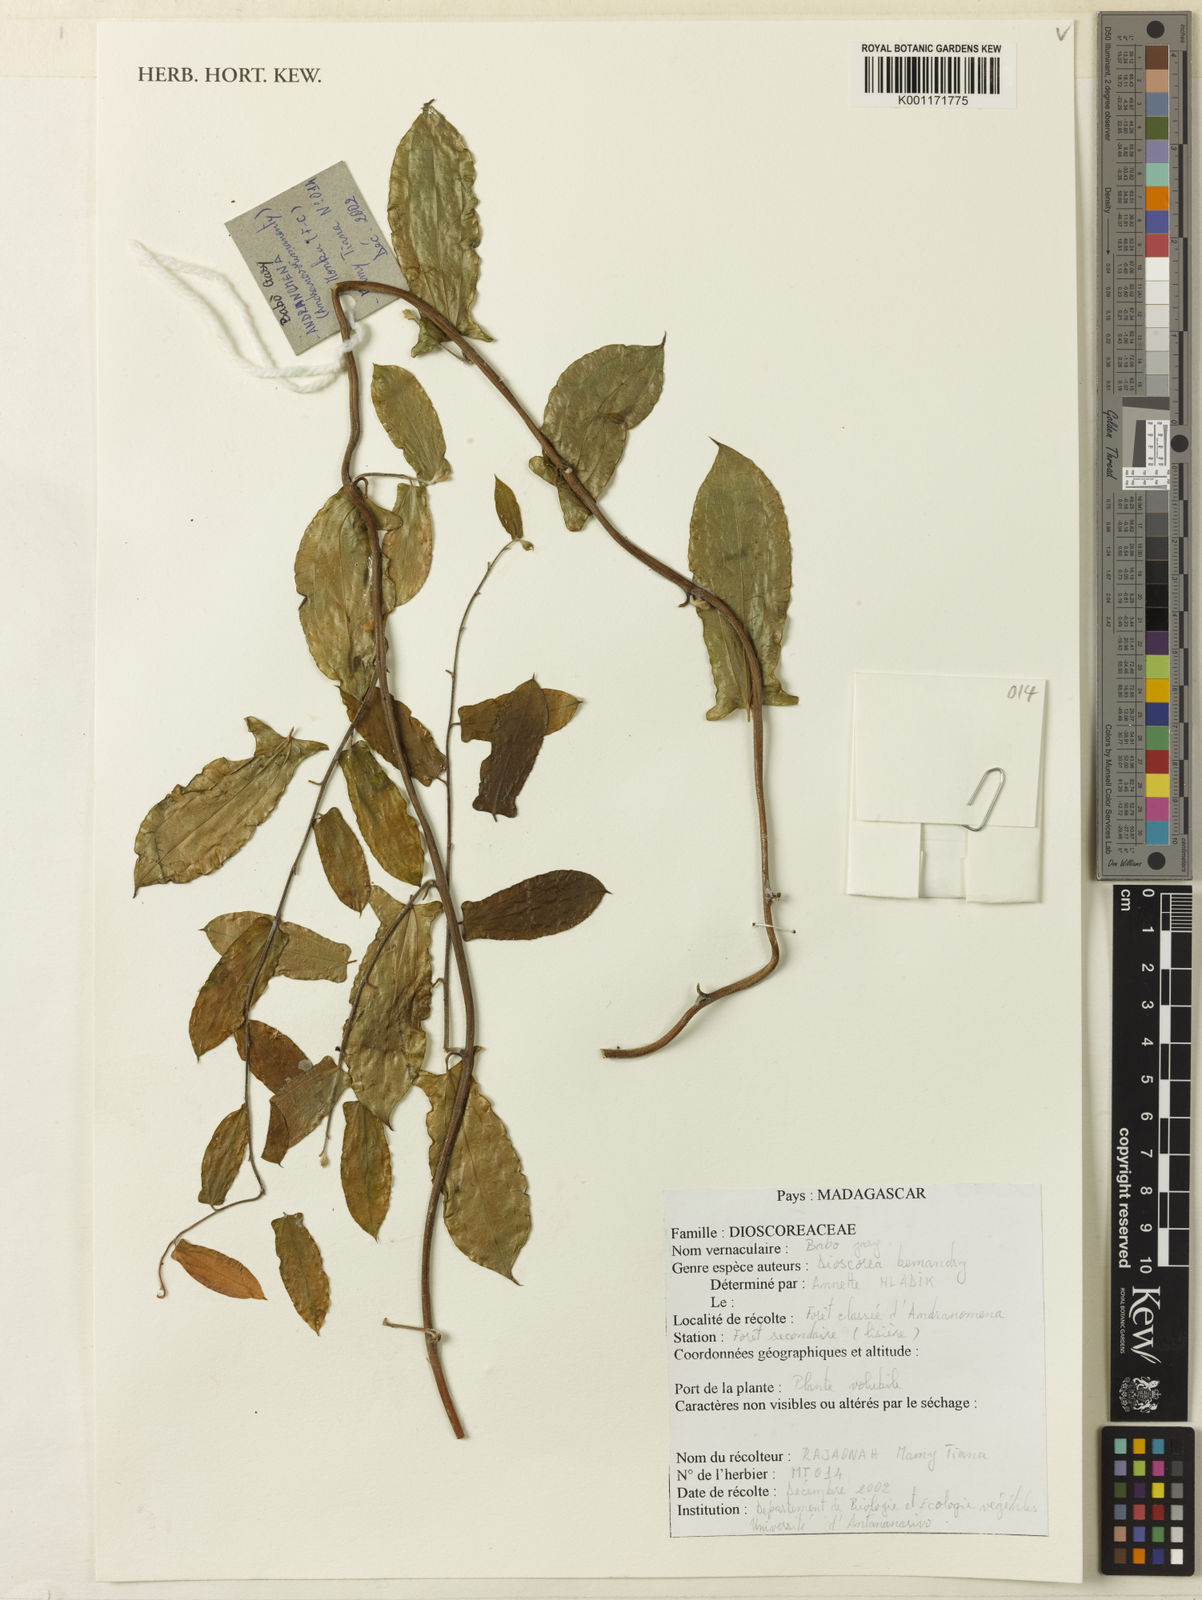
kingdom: Plantae
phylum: Tracheophyta
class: Liliopsida
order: Dioscoreales
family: Dioscoreaceae
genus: Dioscorea
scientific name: Dioscorea bemandry
